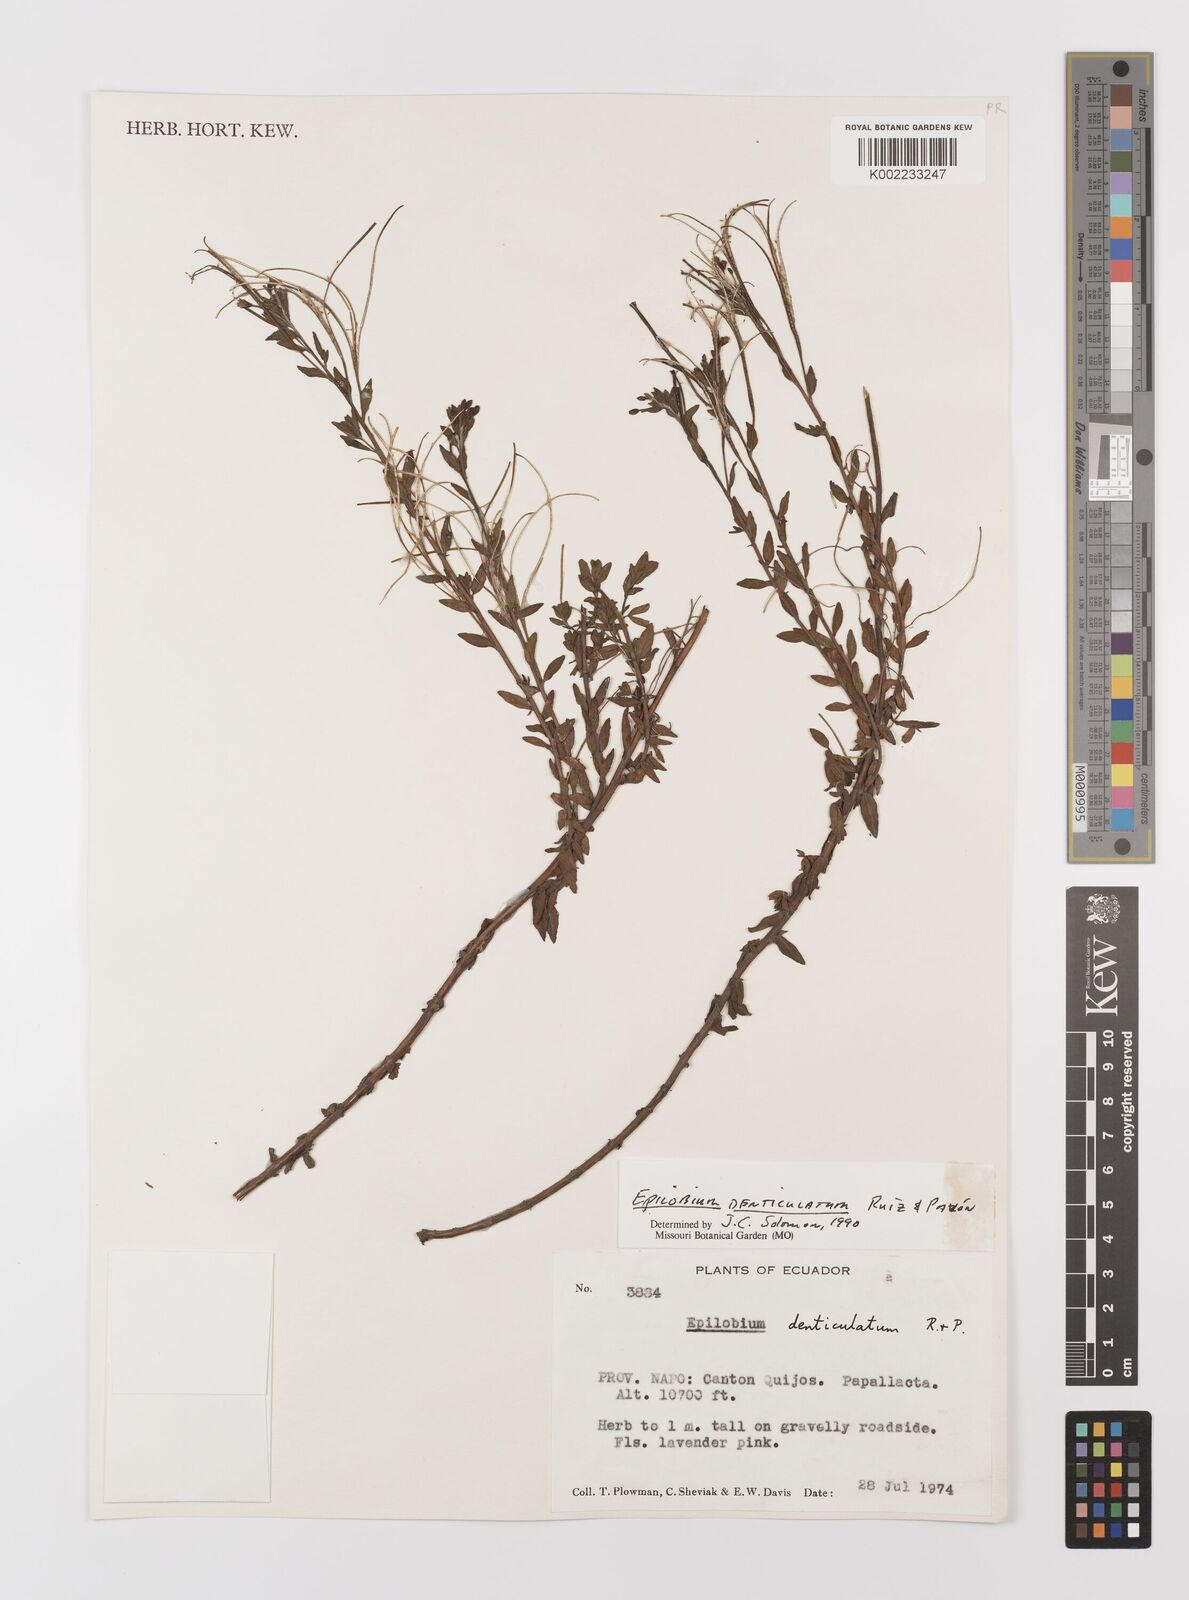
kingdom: Plantae
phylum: Tracheophyta
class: Magnoliopsida
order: Myrtales
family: Onagraceae
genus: Epilobium
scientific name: Epilobium denticulatum
